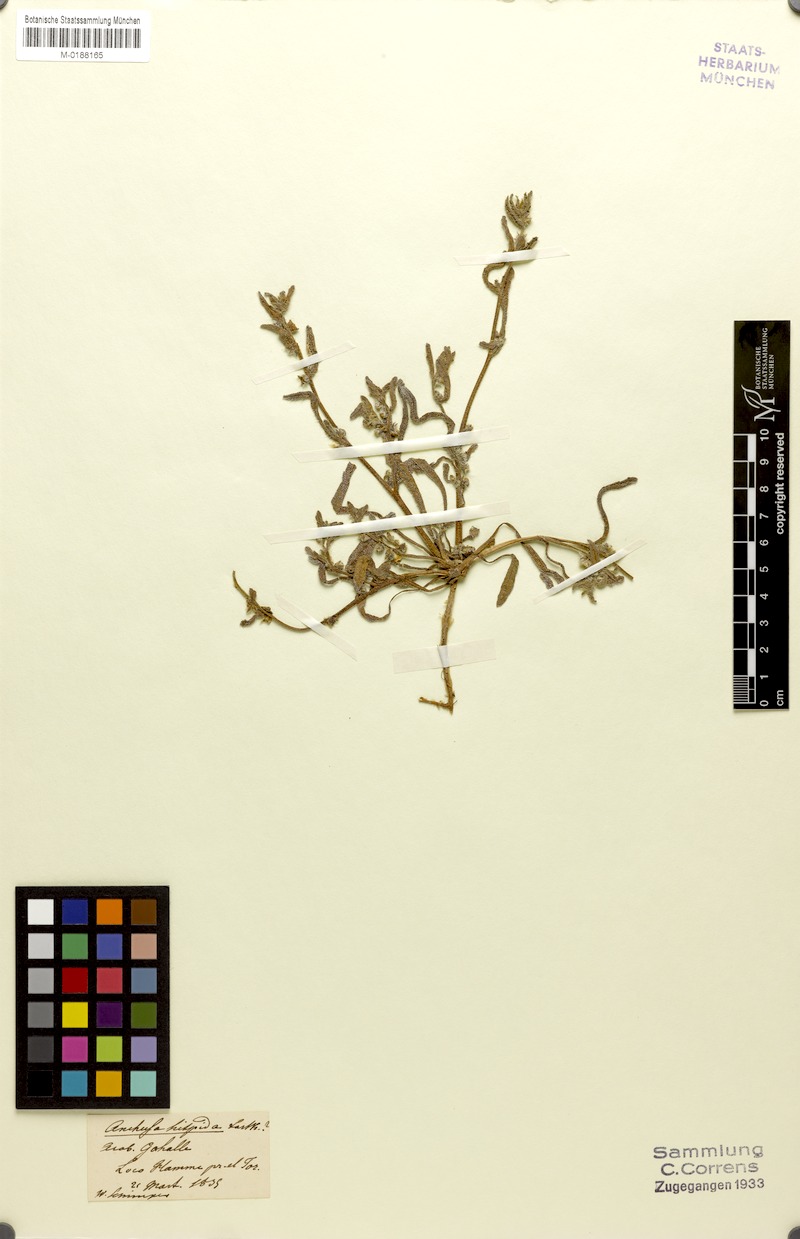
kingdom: Plantae
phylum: Tracheophyta
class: Magnoliopsida
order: Boraginales
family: Boraginaceae
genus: Gastrocotyle
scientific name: Gastrocotyle hispida
